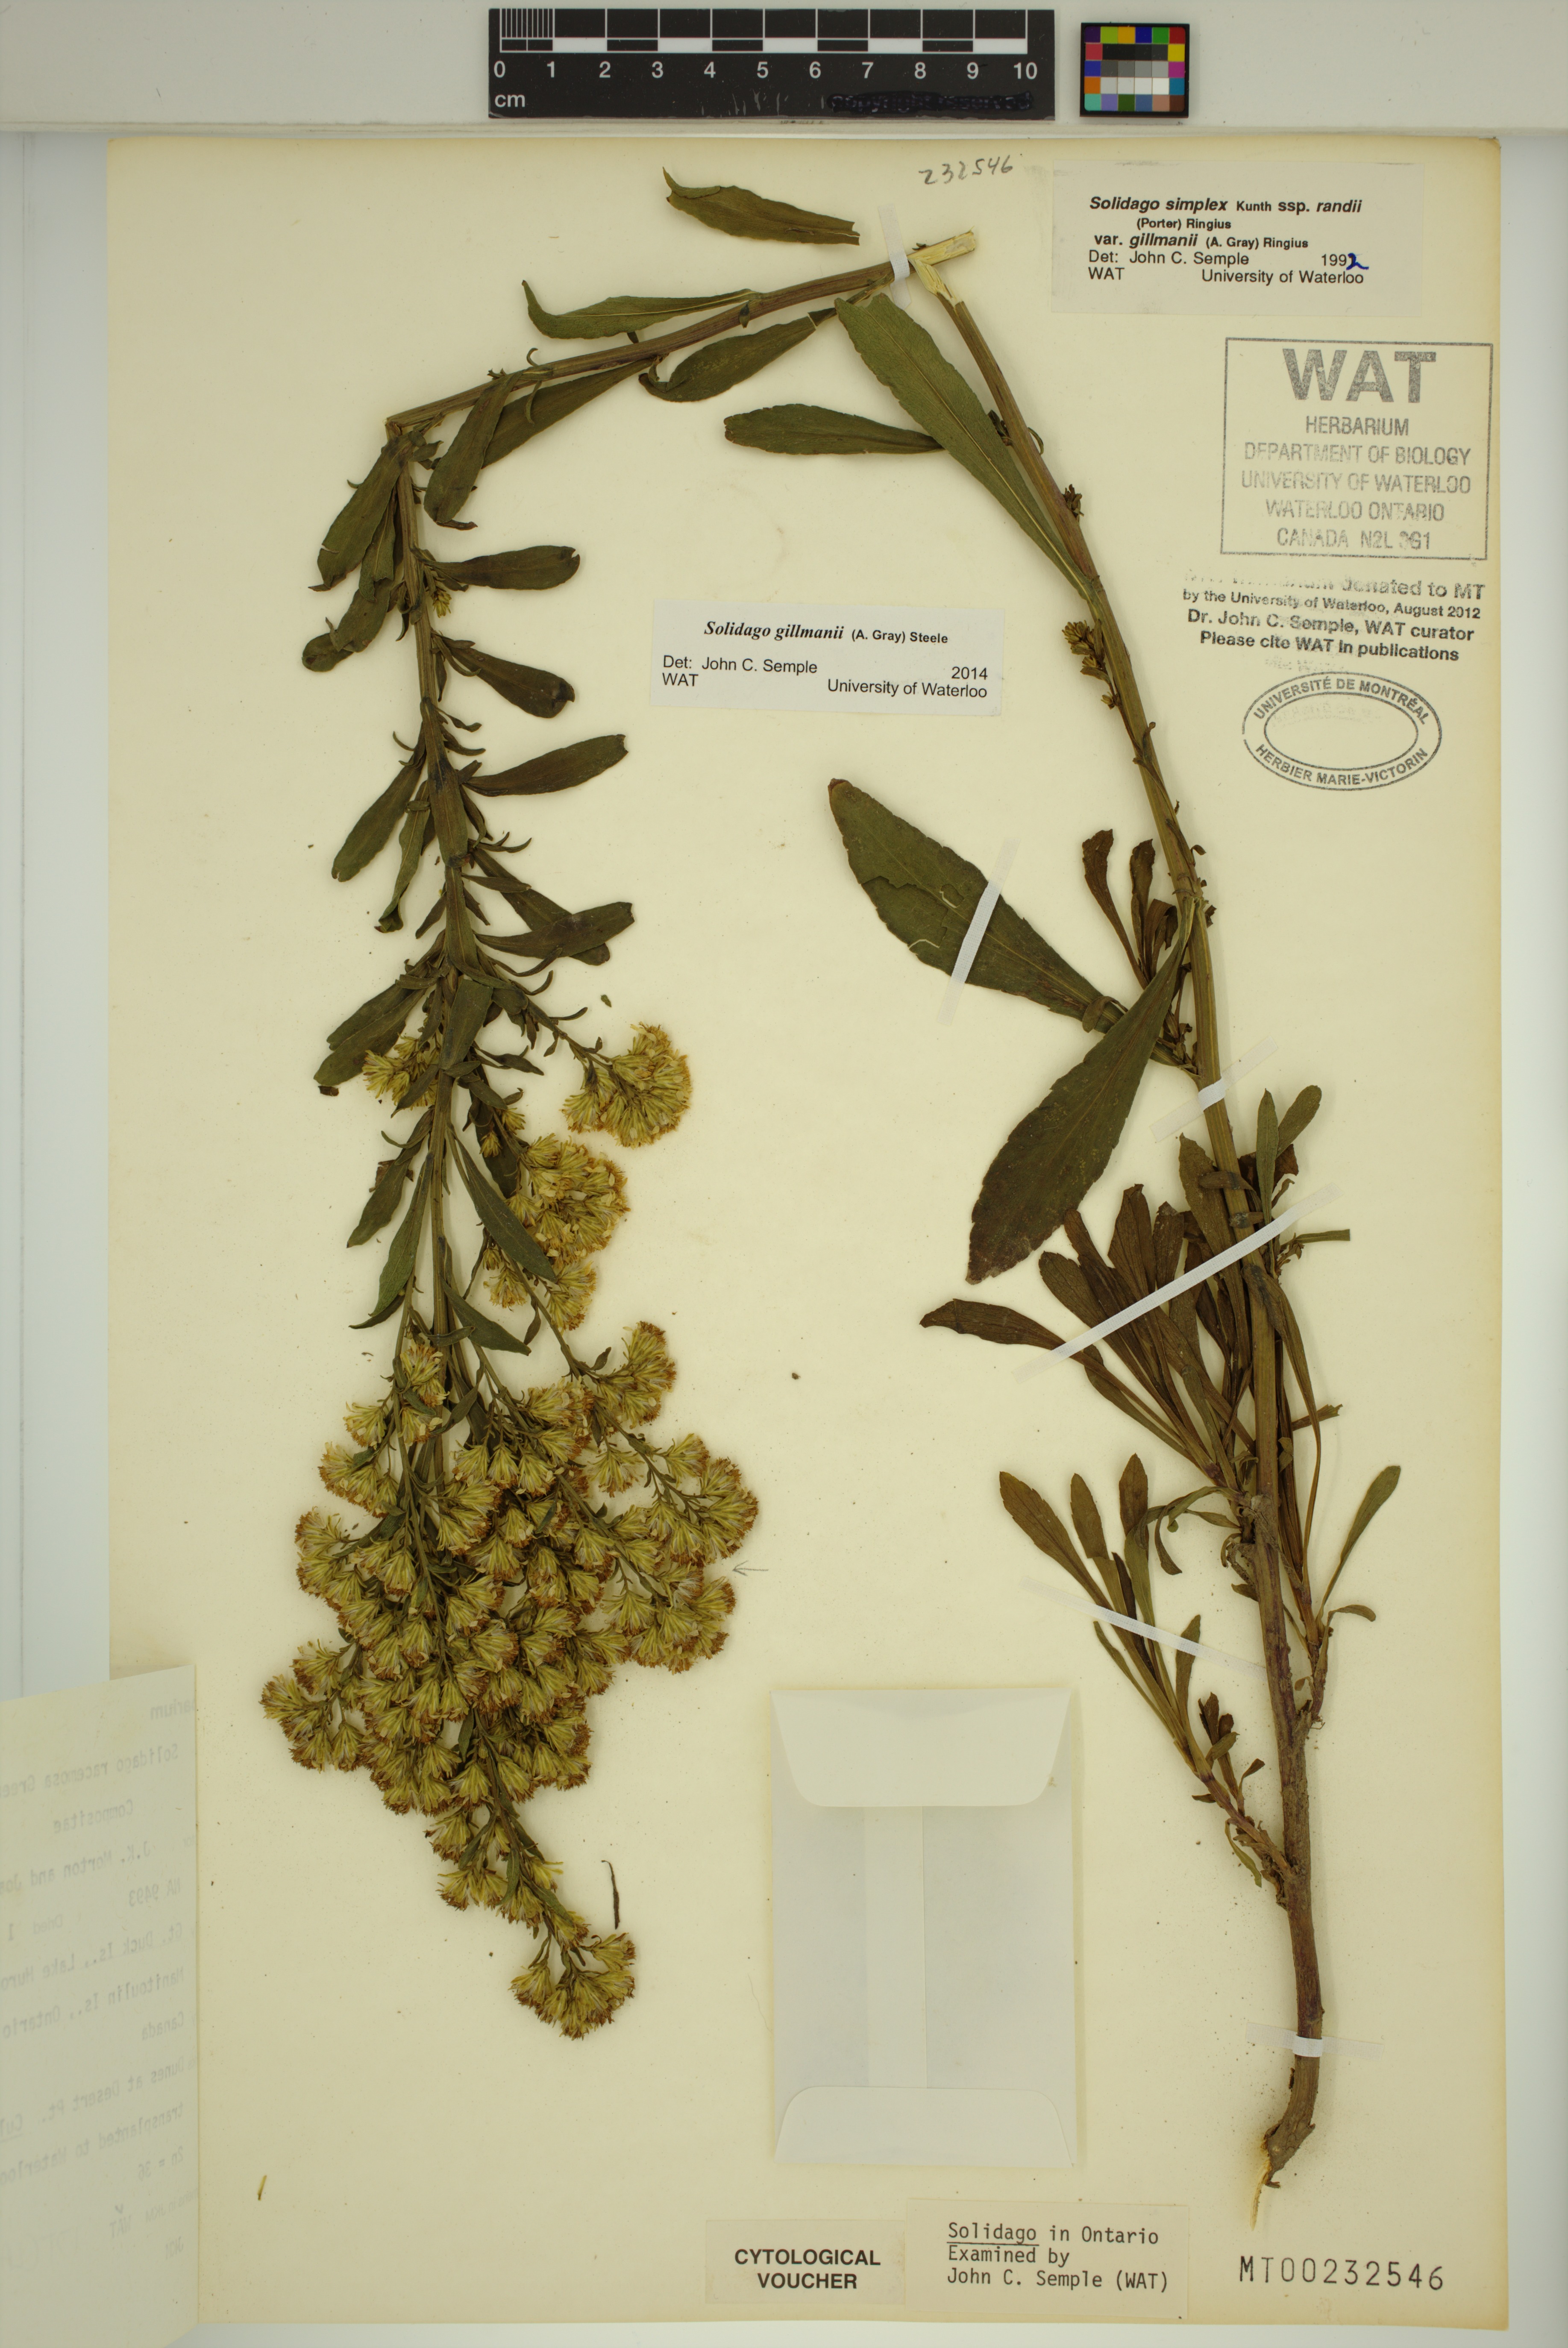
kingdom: Plantae
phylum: Tracheophyta
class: Magnoliopsida
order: Asterales
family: Asteraceae
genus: Solidago
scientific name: Solidago gillmanii
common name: Gillman's goldenrod
